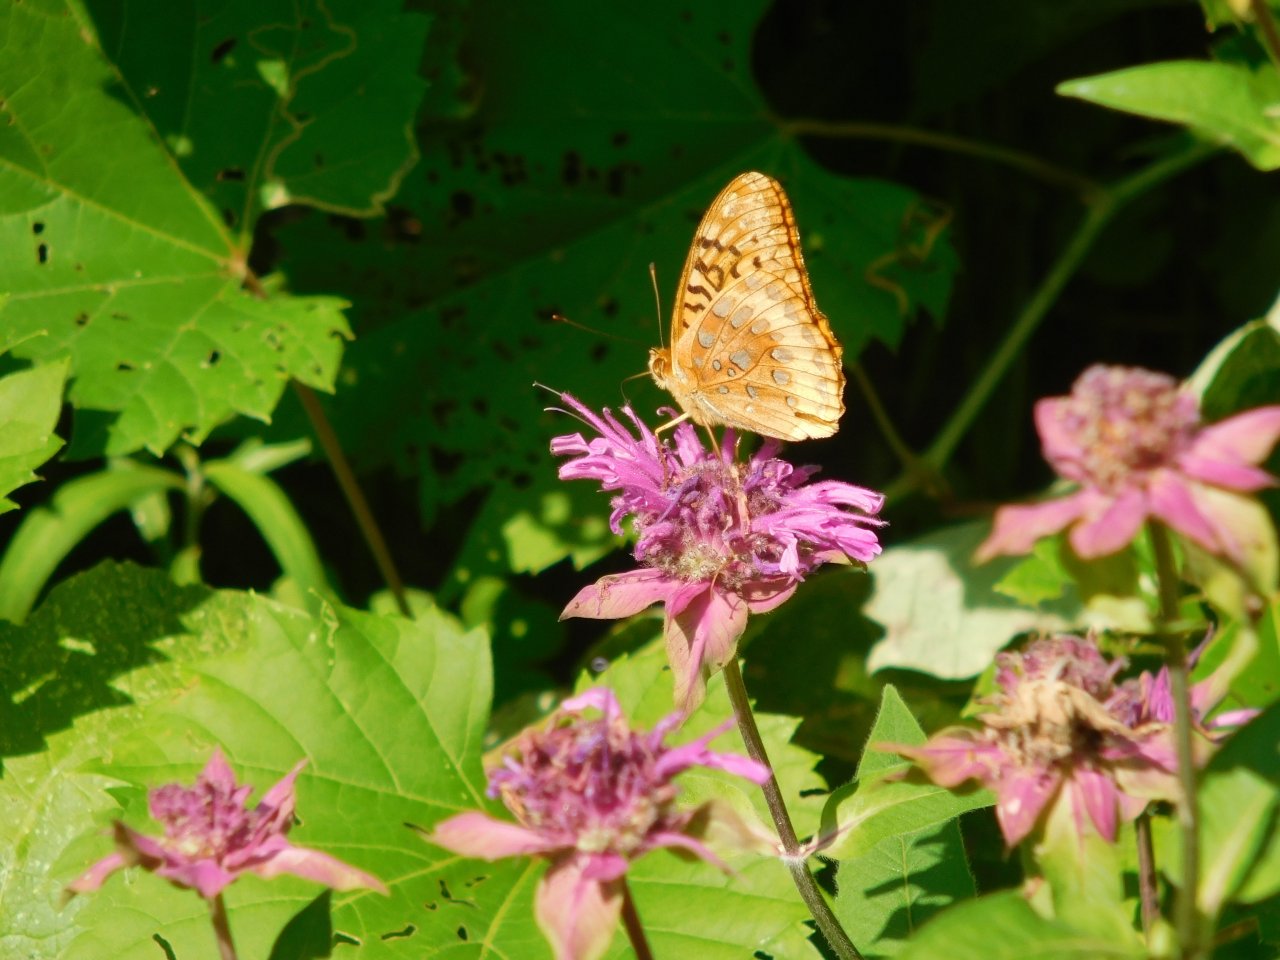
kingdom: Animalia
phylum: Arthropoda
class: Insecta
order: Lepidoptera
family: Nymphalidae
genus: Speyeria
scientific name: Speyeria cybele
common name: Great Spangled Fritillary
